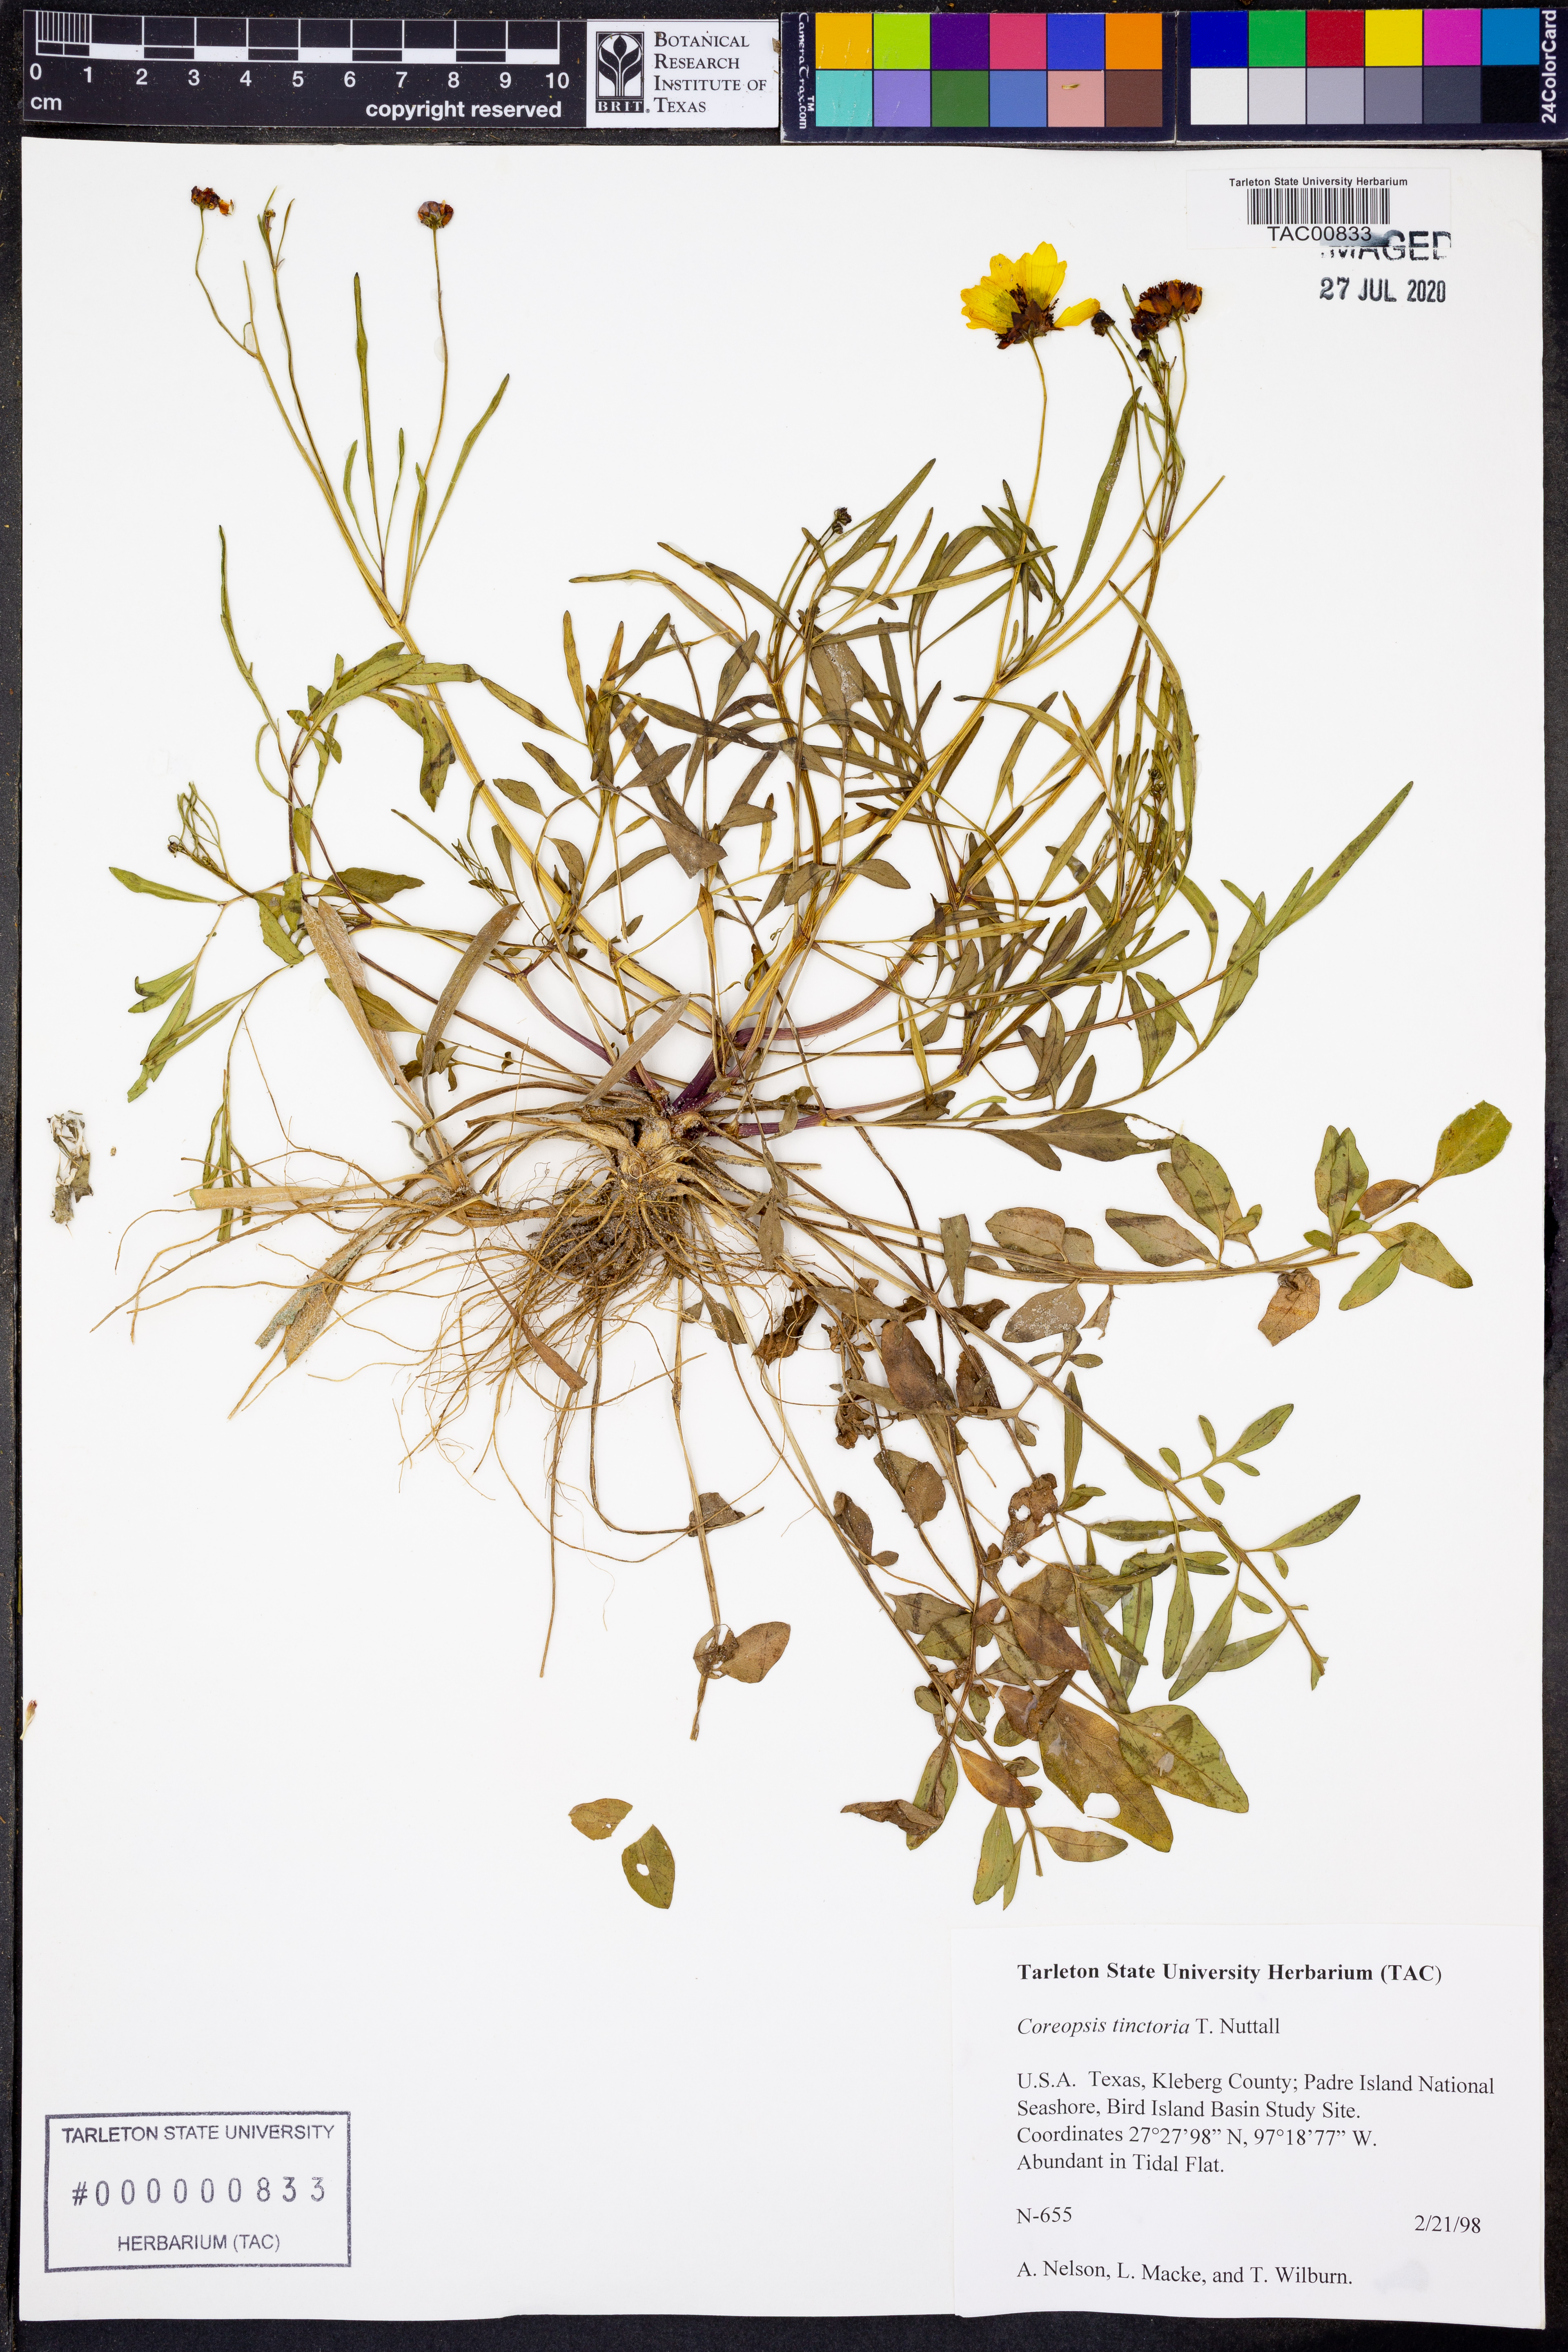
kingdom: Plantae
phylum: Tracheophyta
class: Magnoliopsida
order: Asterales
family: Asteraceae
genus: Coreopsis
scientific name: Coreopsis tinctoria
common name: Garden tickseed
